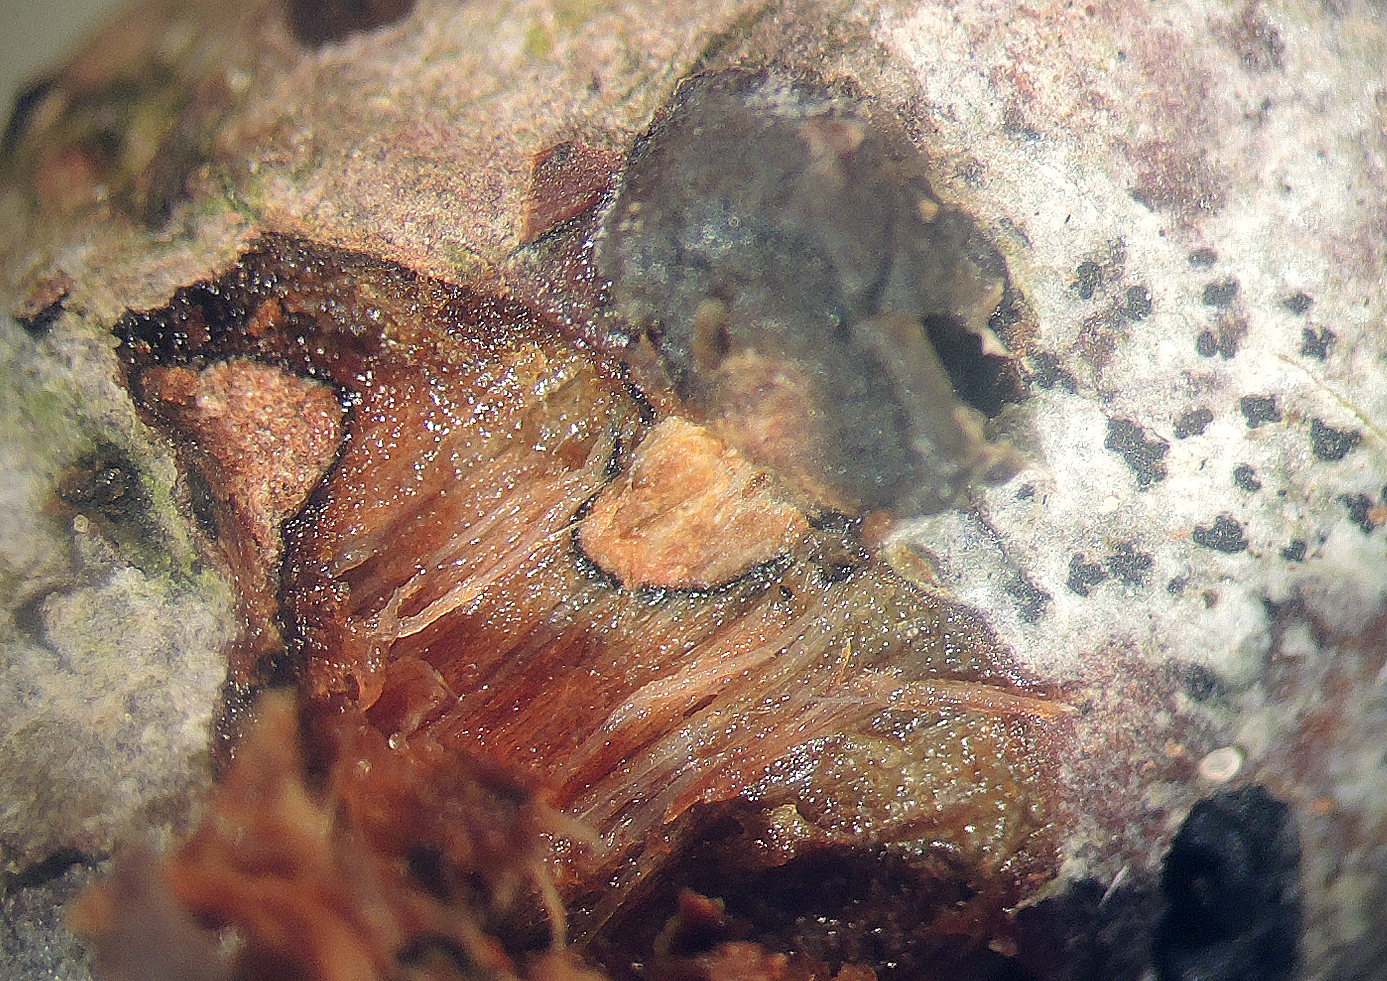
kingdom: Fungi
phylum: Basidiomycota
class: Tremellomycetes
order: Tremellales
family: Tremellaceae
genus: Tremella
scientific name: Tremella exigua
